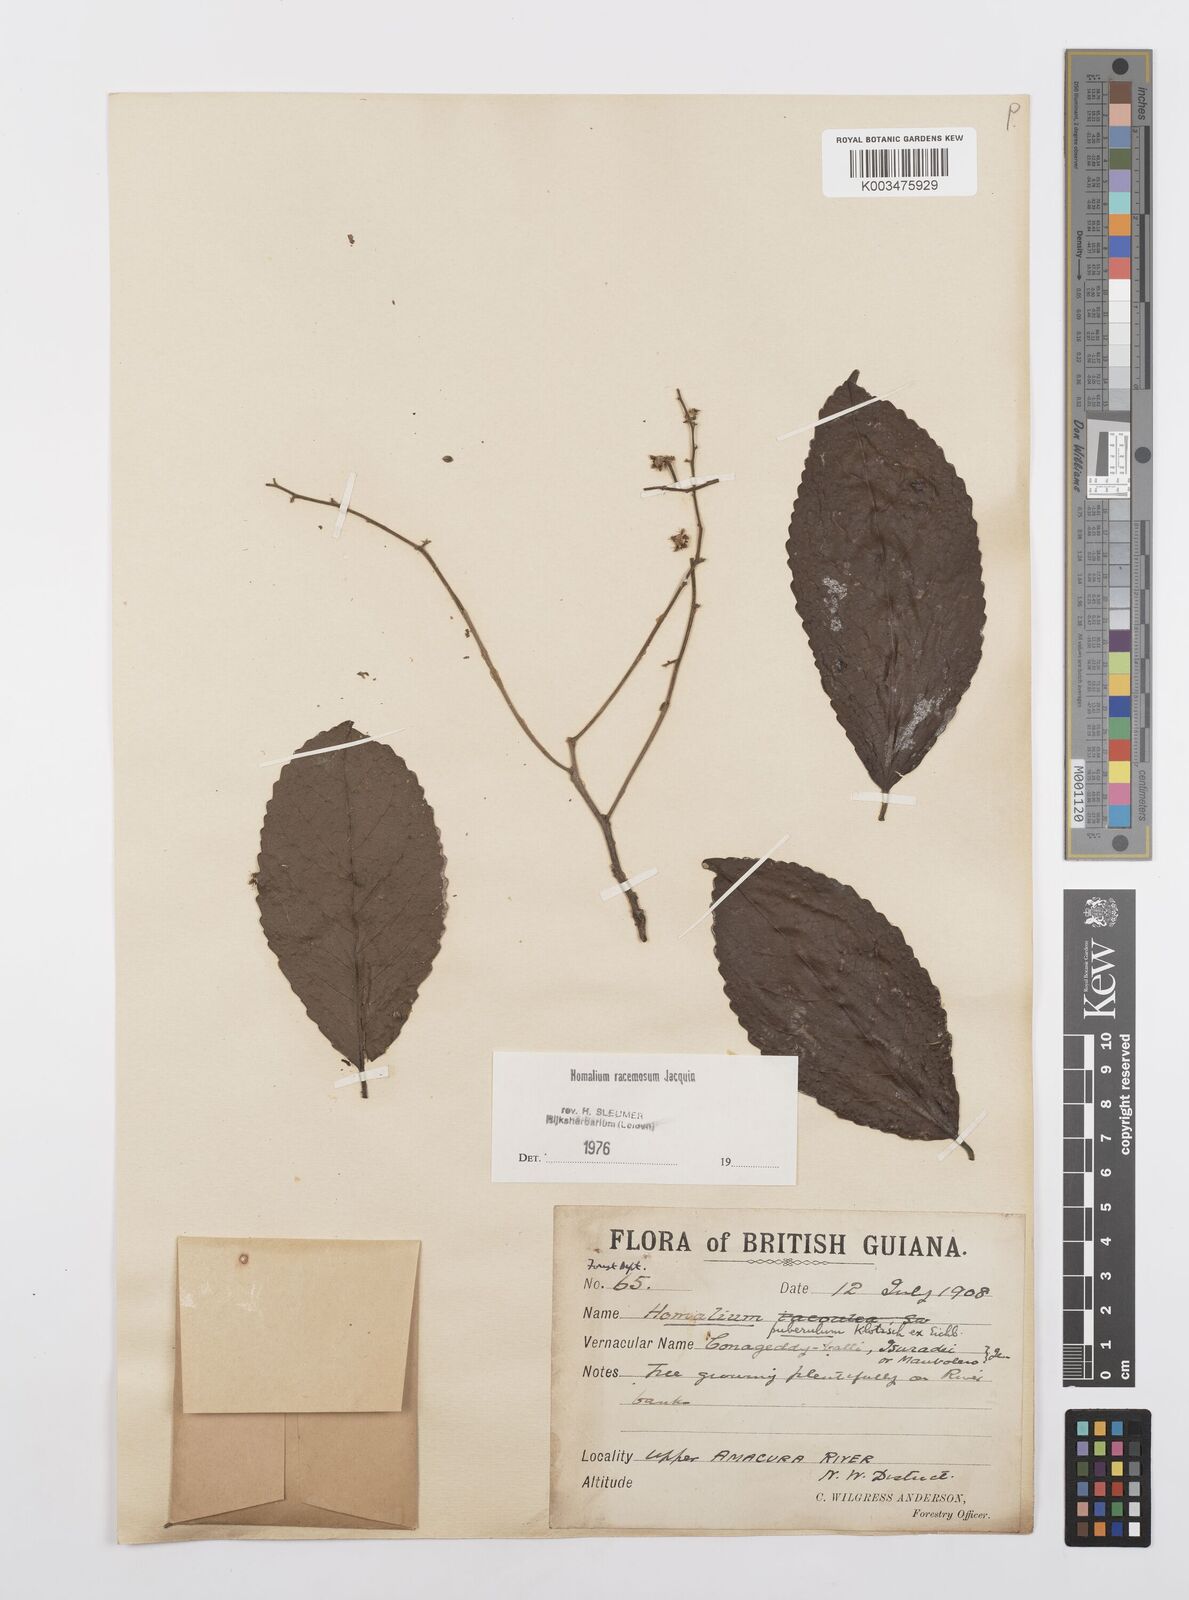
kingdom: Plantae
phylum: Tracheophyta
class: Magnoliopsida
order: Malpighiales
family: Salicaceae
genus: Homalium
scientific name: Homalium racemosum
